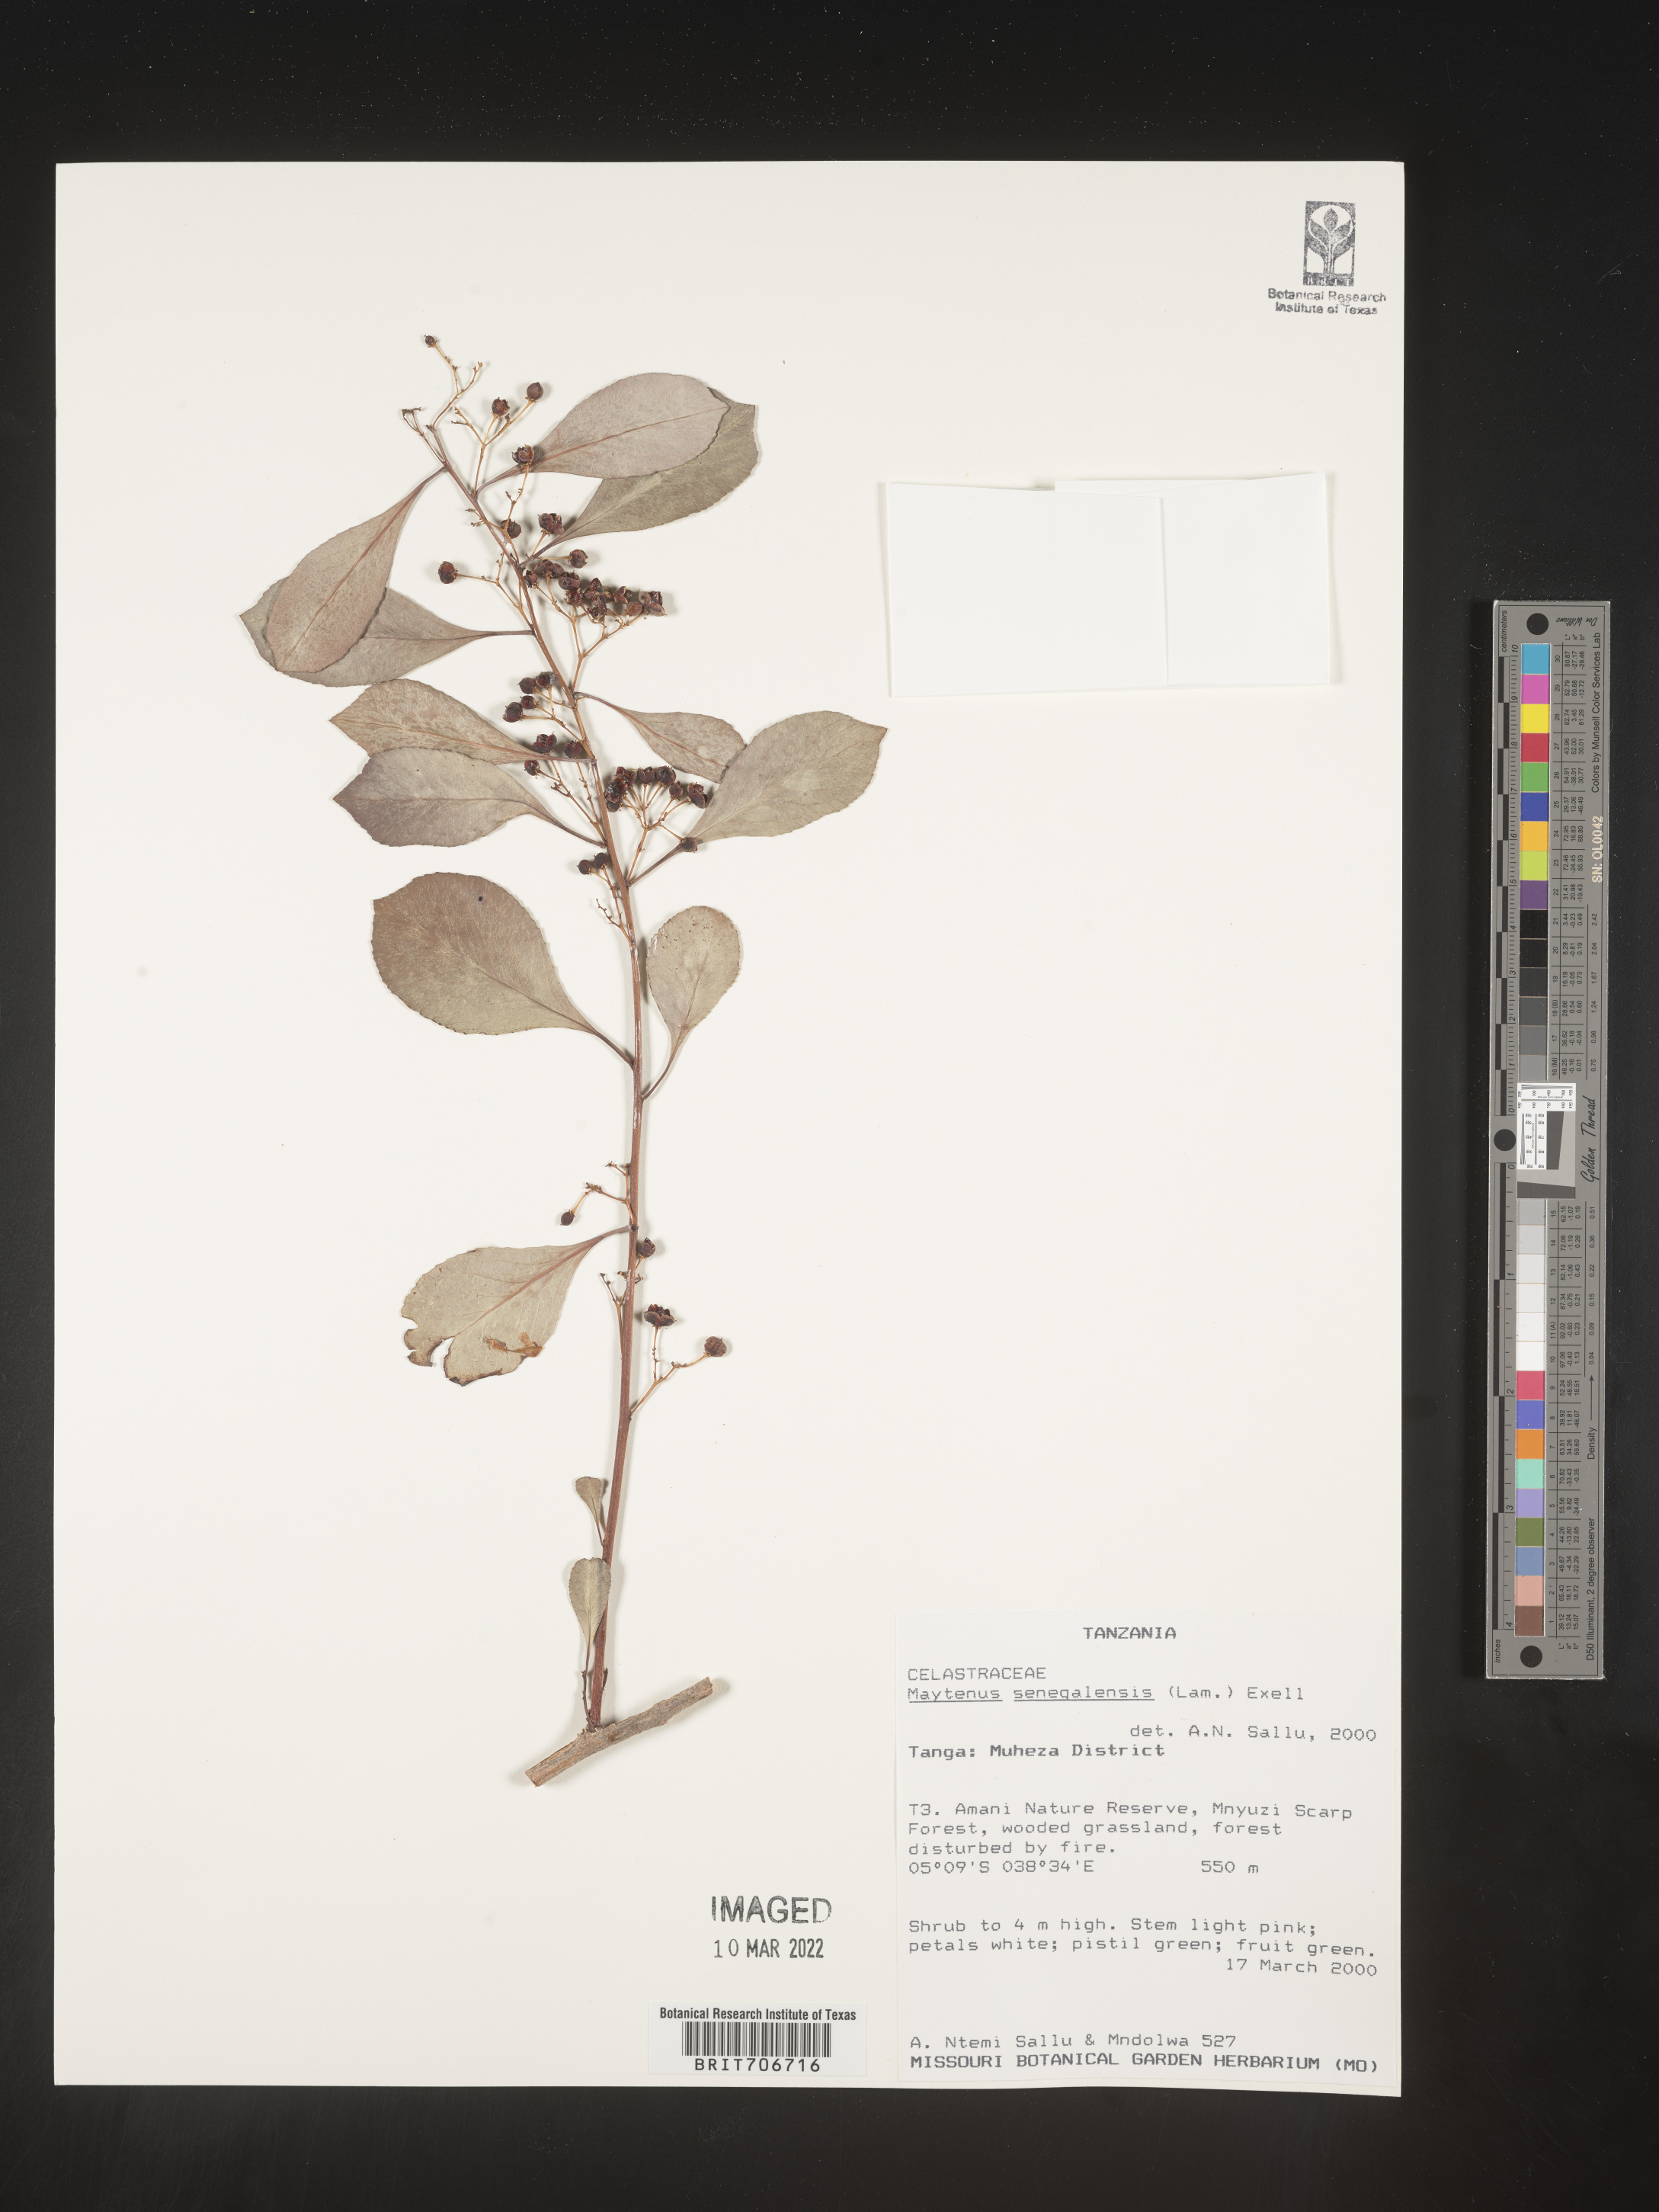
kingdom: Plantae
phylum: Tracheophyta
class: Magnoliopsida
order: Celastrales
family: Celastraceae
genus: Maytenus
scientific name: Maytenus
